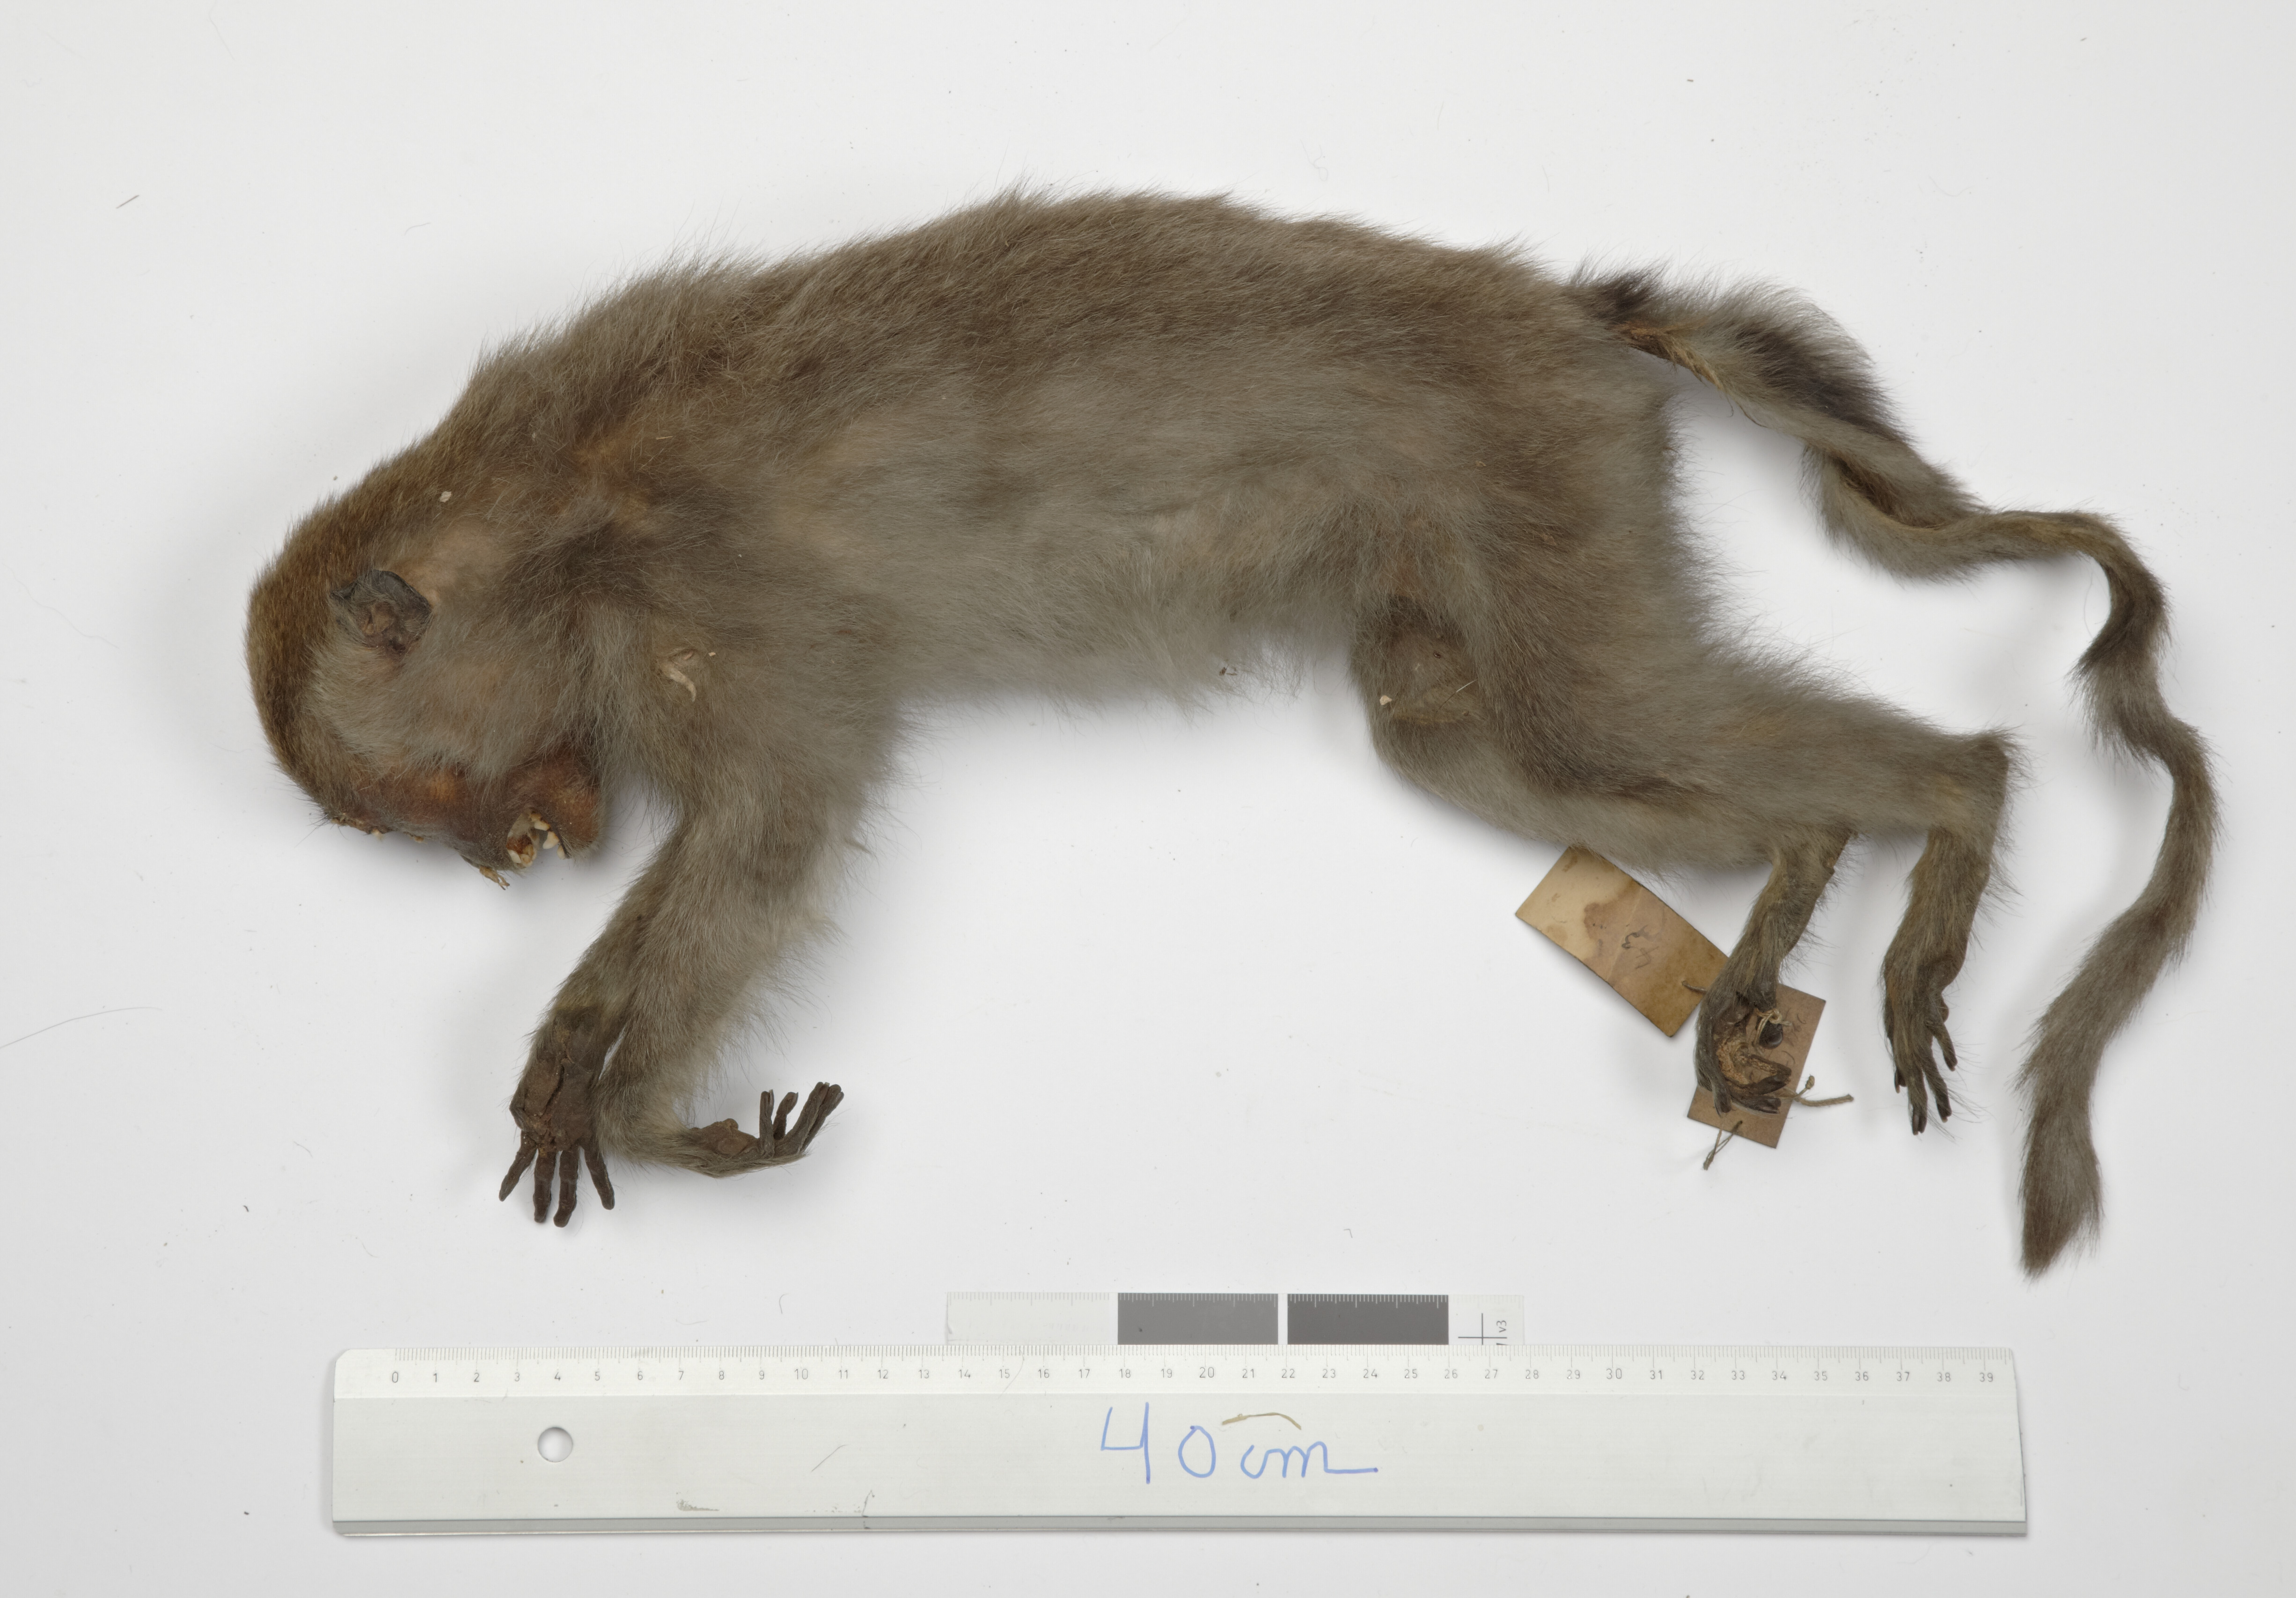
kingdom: Animalia
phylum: Chordata
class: Mammalia
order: Primates
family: Cercopithecidae
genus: Macaca
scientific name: Macaca fascicularis
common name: Crab-eating macaque
